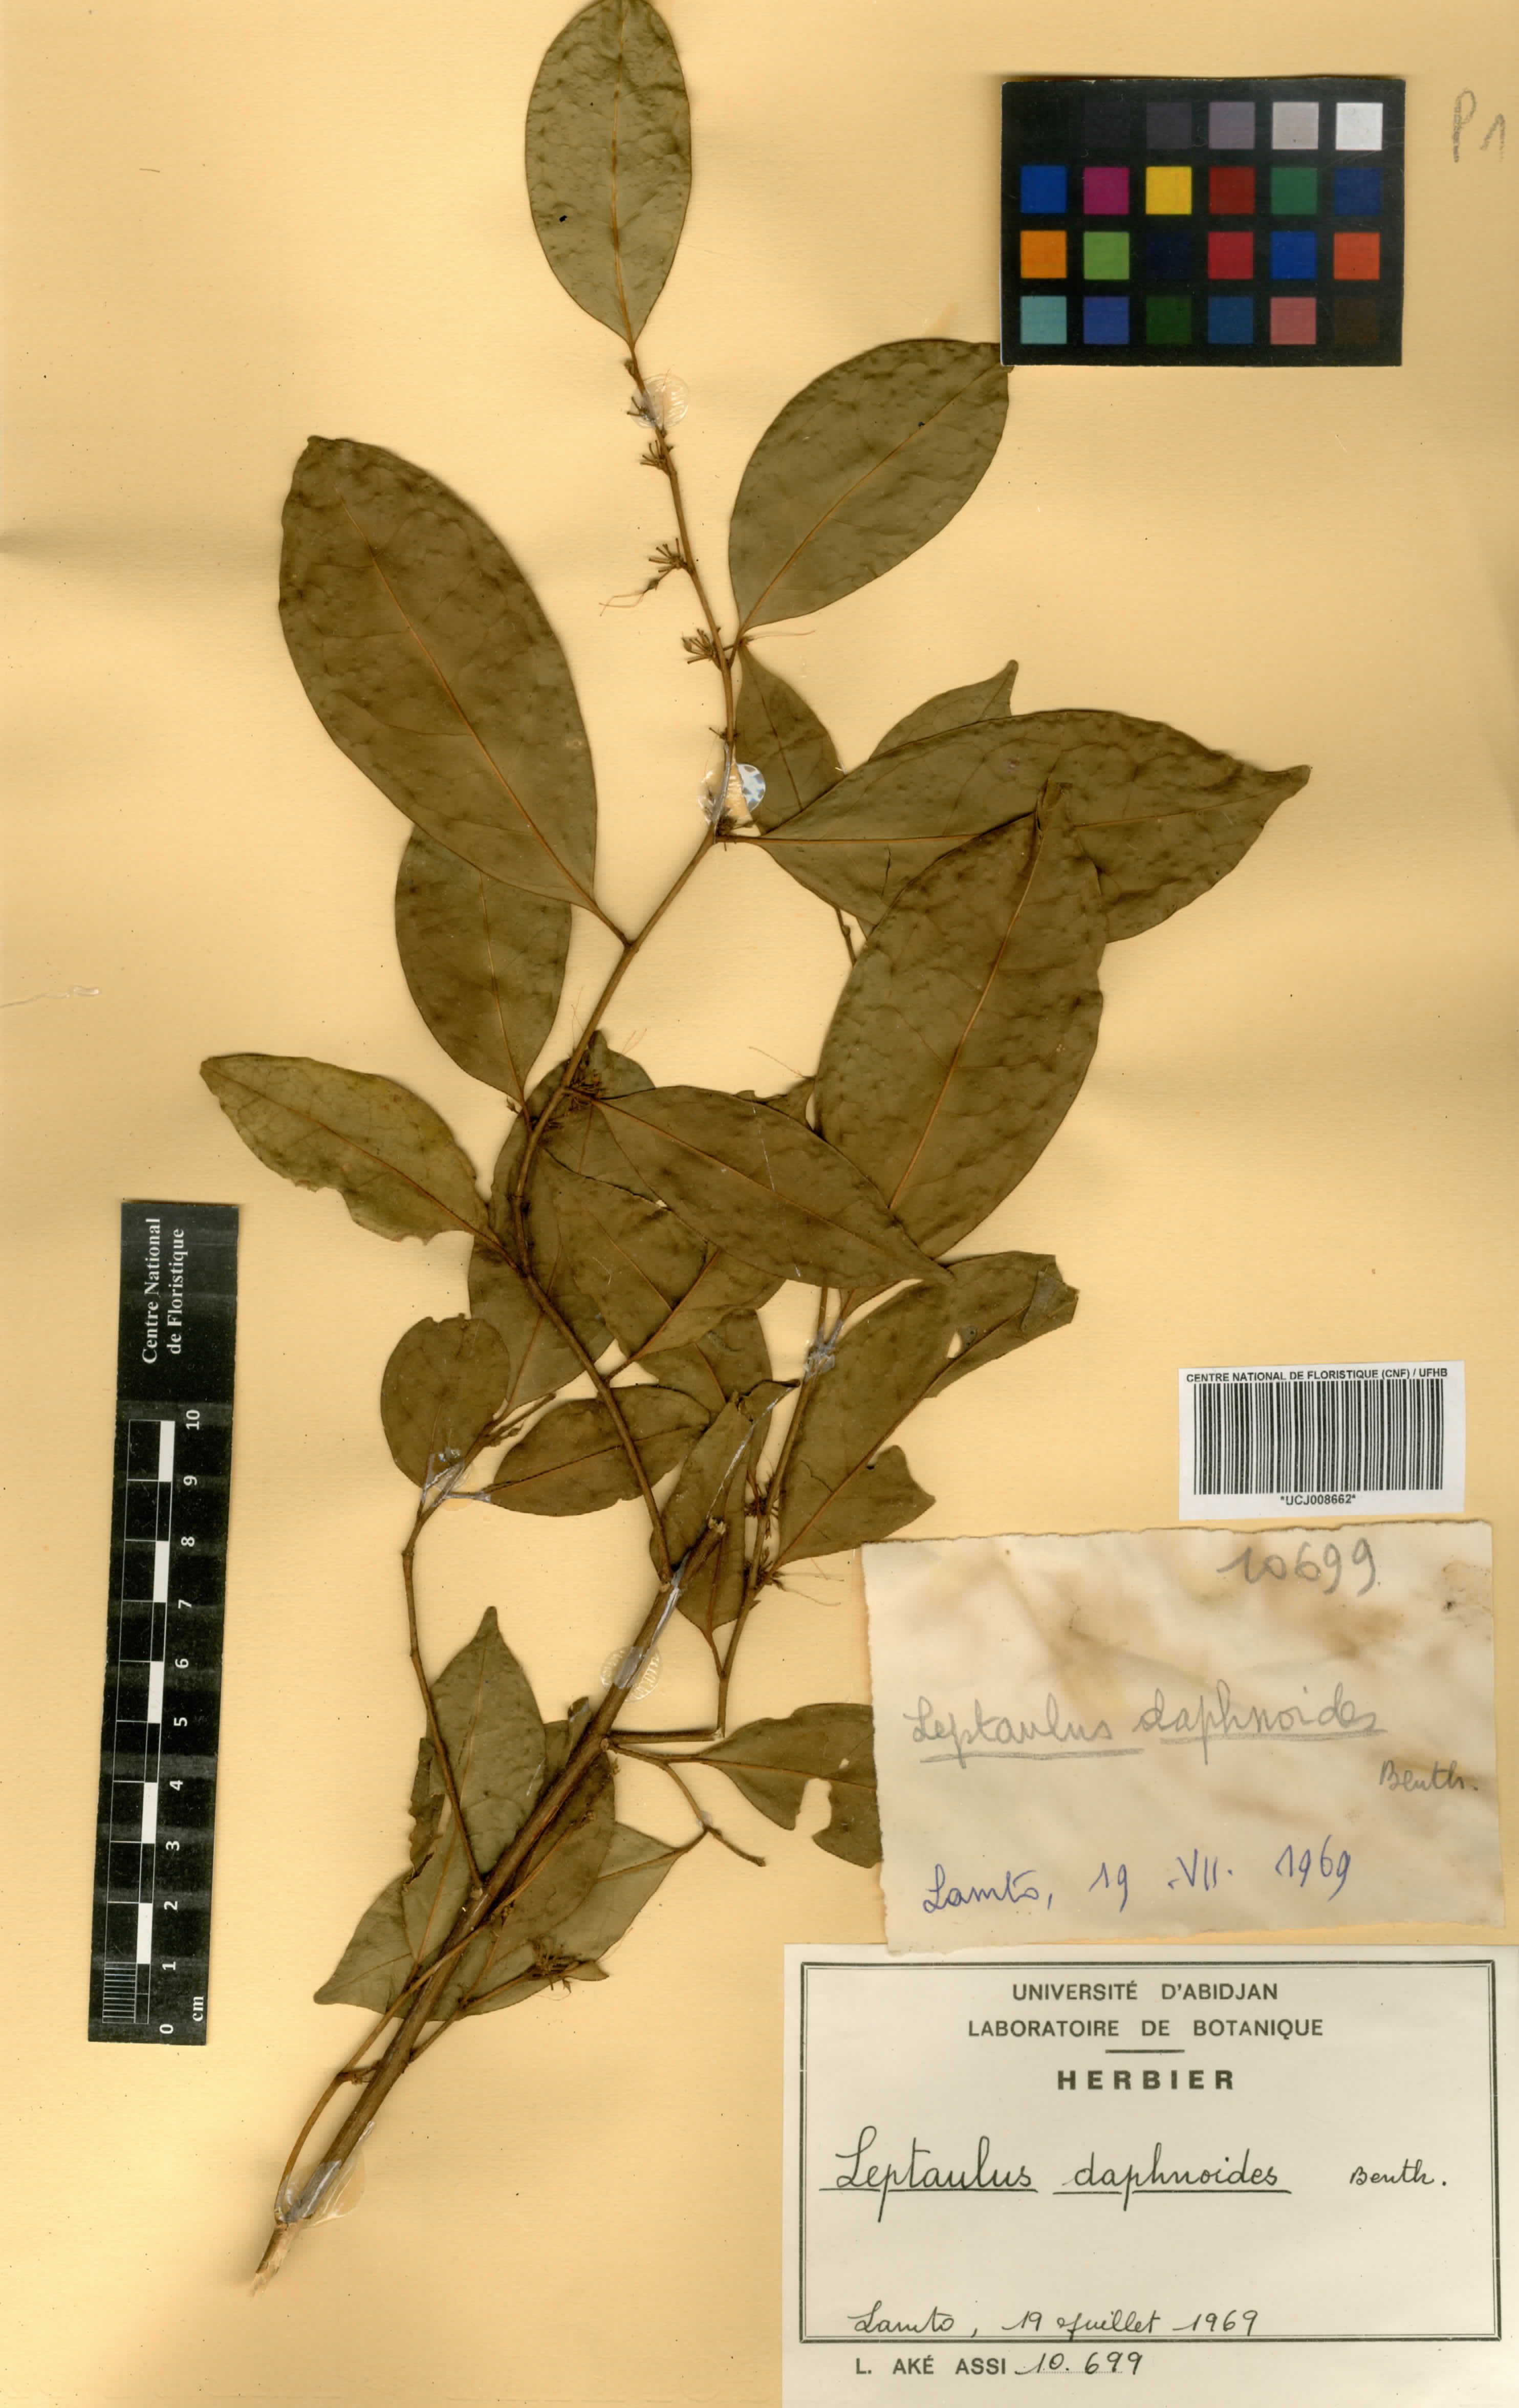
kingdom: Plantae
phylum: Tracheophyta
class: Magnoliopsida
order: Cardiopteridales
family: Cardiopteridaceae
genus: Leptaulus
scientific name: Leptaulus daphnoides
